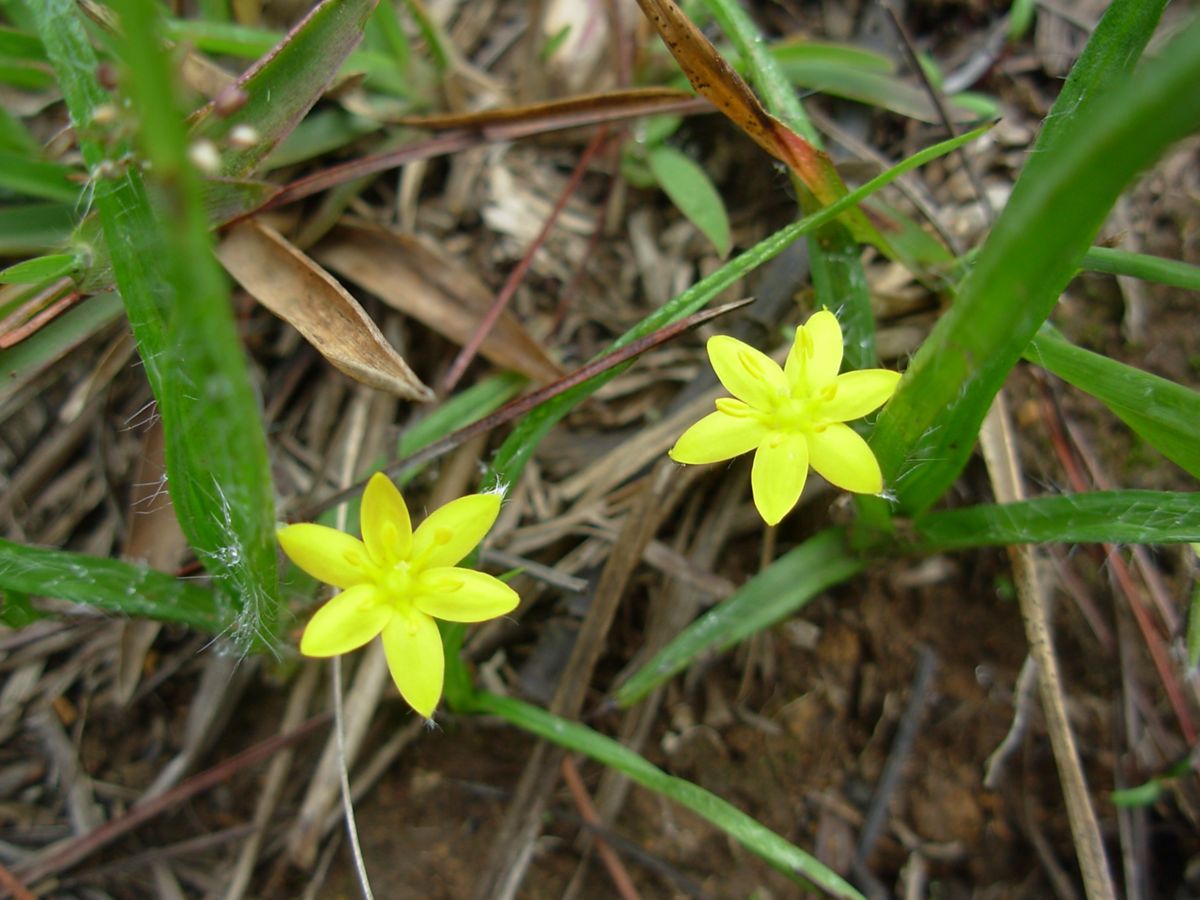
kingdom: Plantae
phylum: Tracheophyta
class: Liliopsida
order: Asparagales
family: Hypoxidaceae
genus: Hypoxis
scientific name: Hypoxis decumbens
